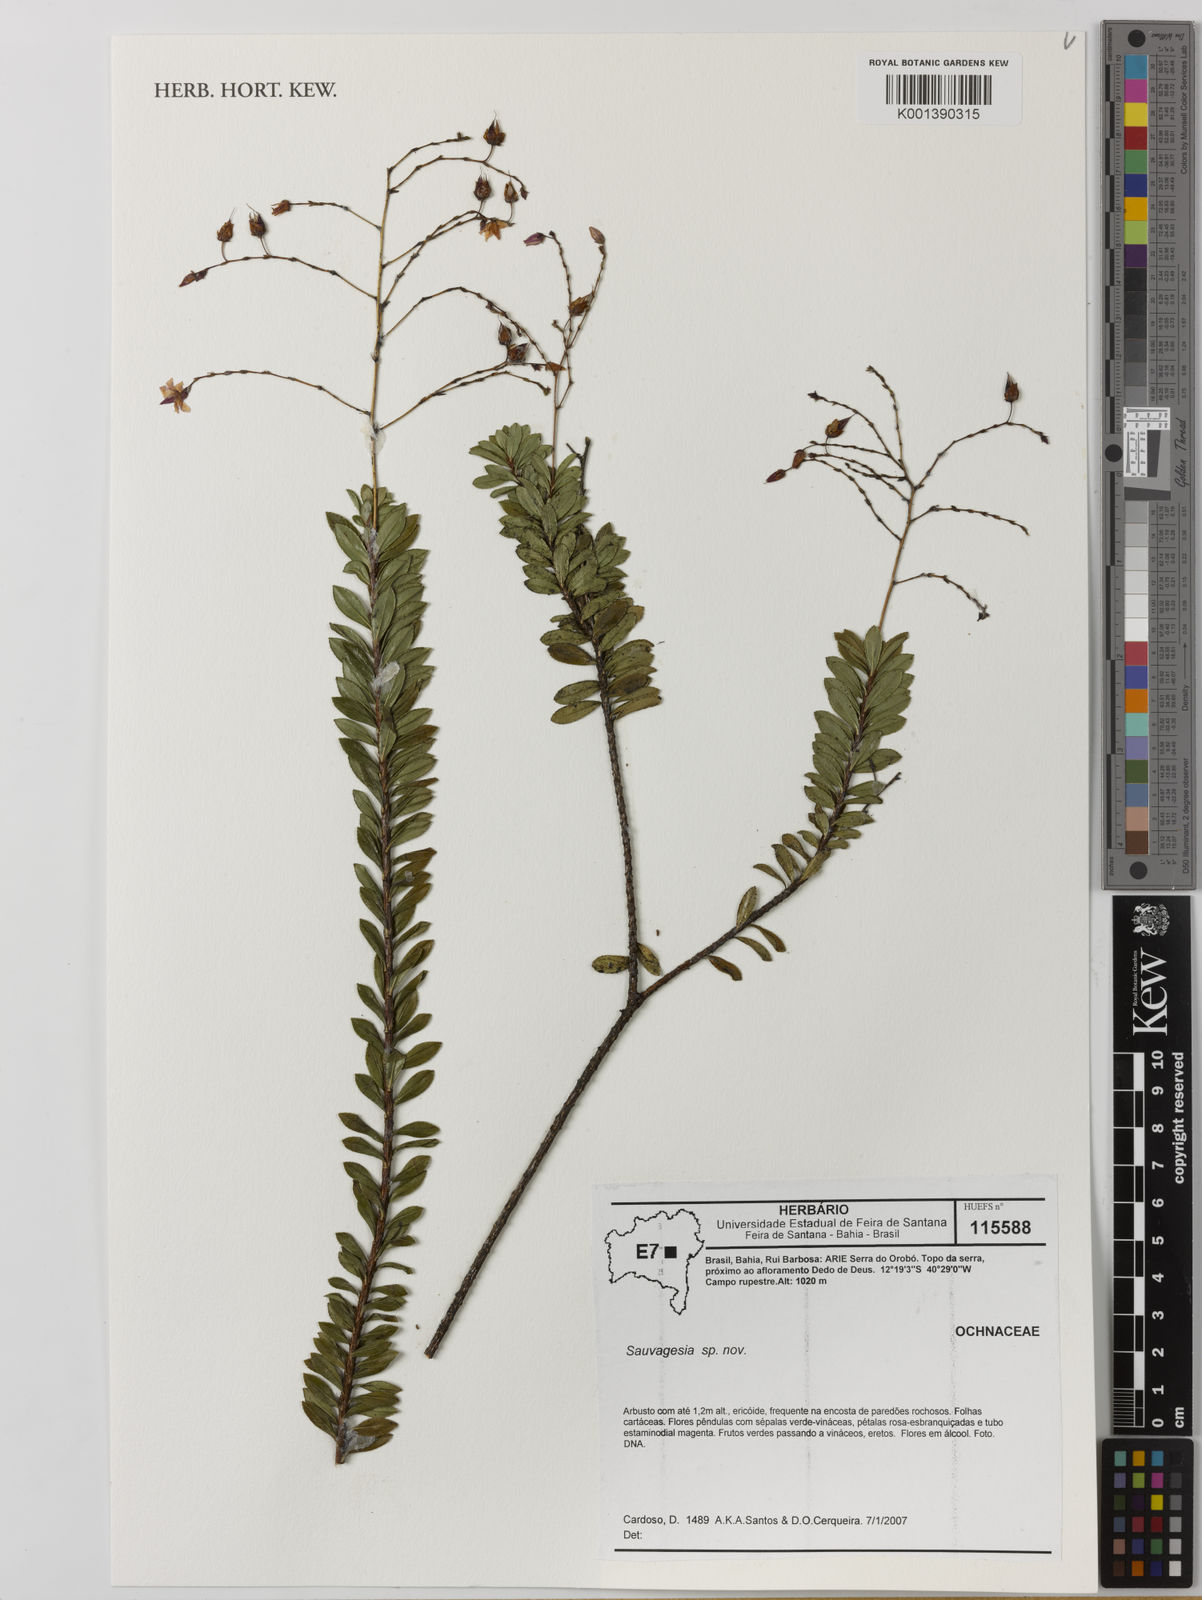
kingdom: Plantae
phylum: Tracheophyta
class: Magnoliopsida
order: Malpighiales
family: Ochnaceae
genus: Sauvagesia
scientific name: Sauvagesia paganuccii
